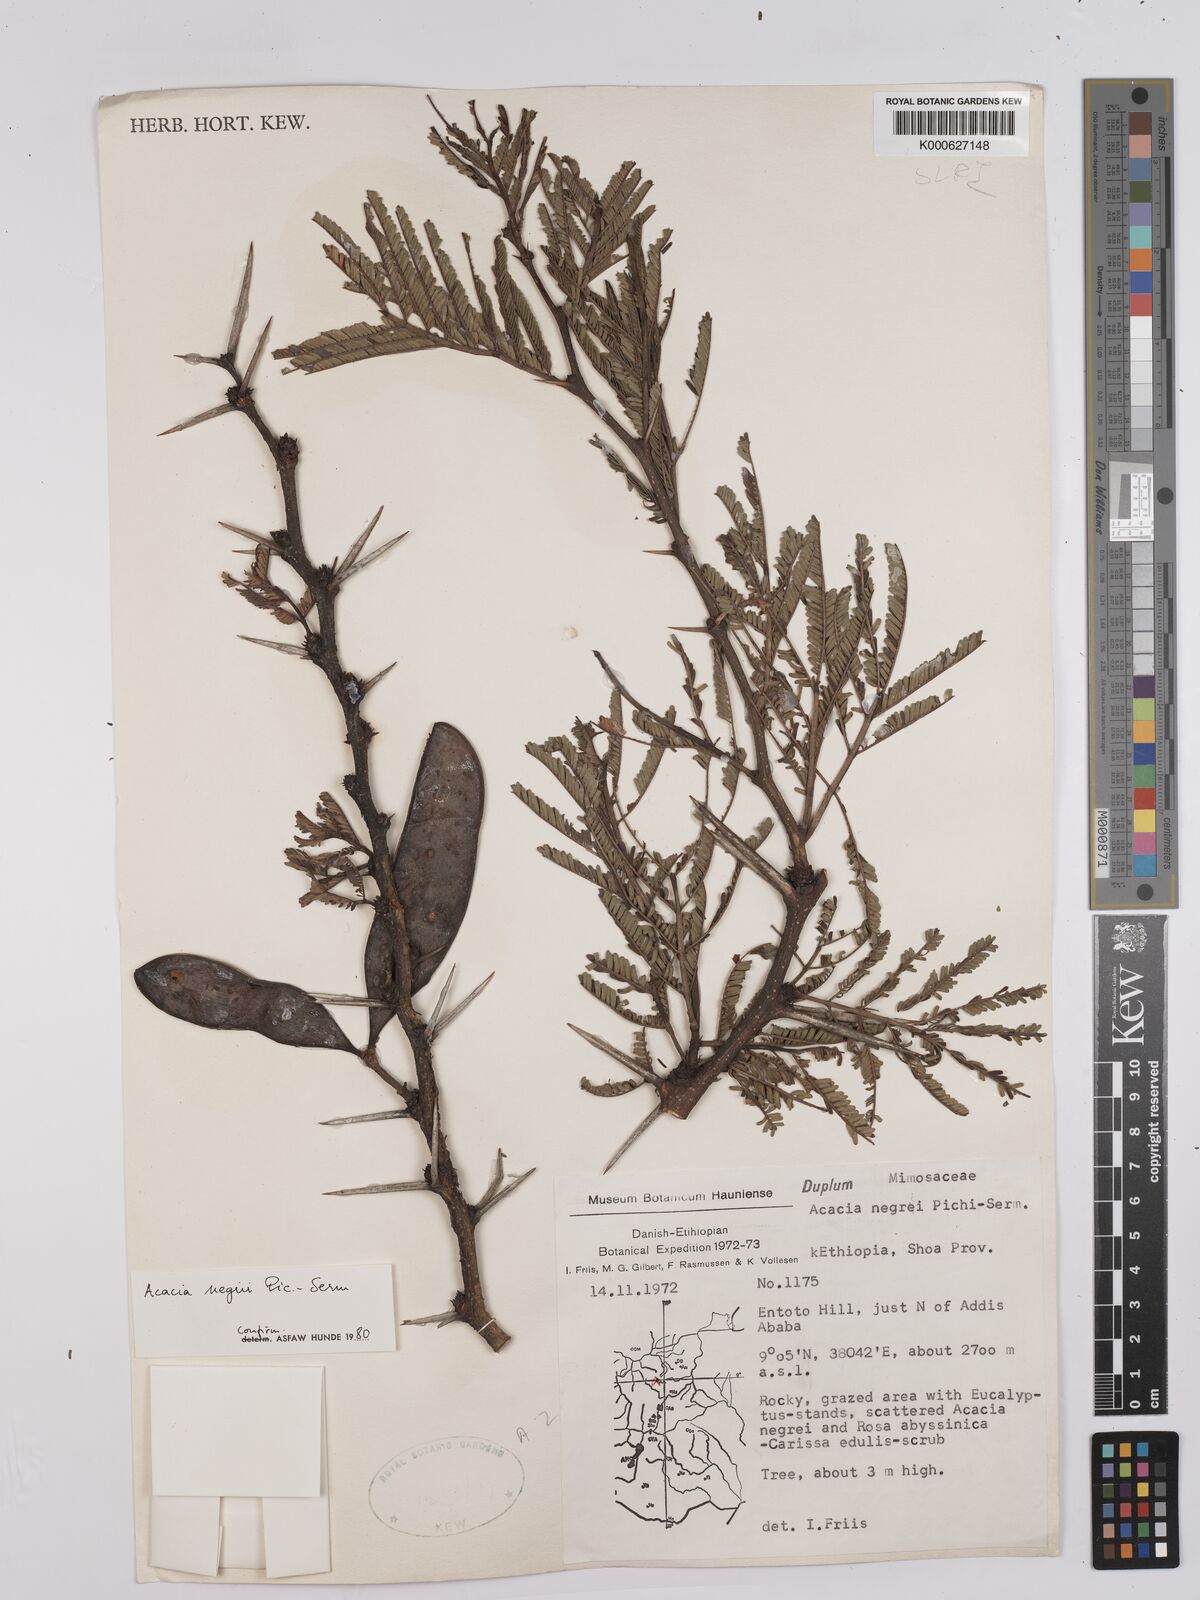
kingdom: Plantae
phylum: Tracheophyta
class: Magnoliopsida
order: Fabales
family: Fabaceae
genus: Vachellia
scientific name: Vachellia negrii
